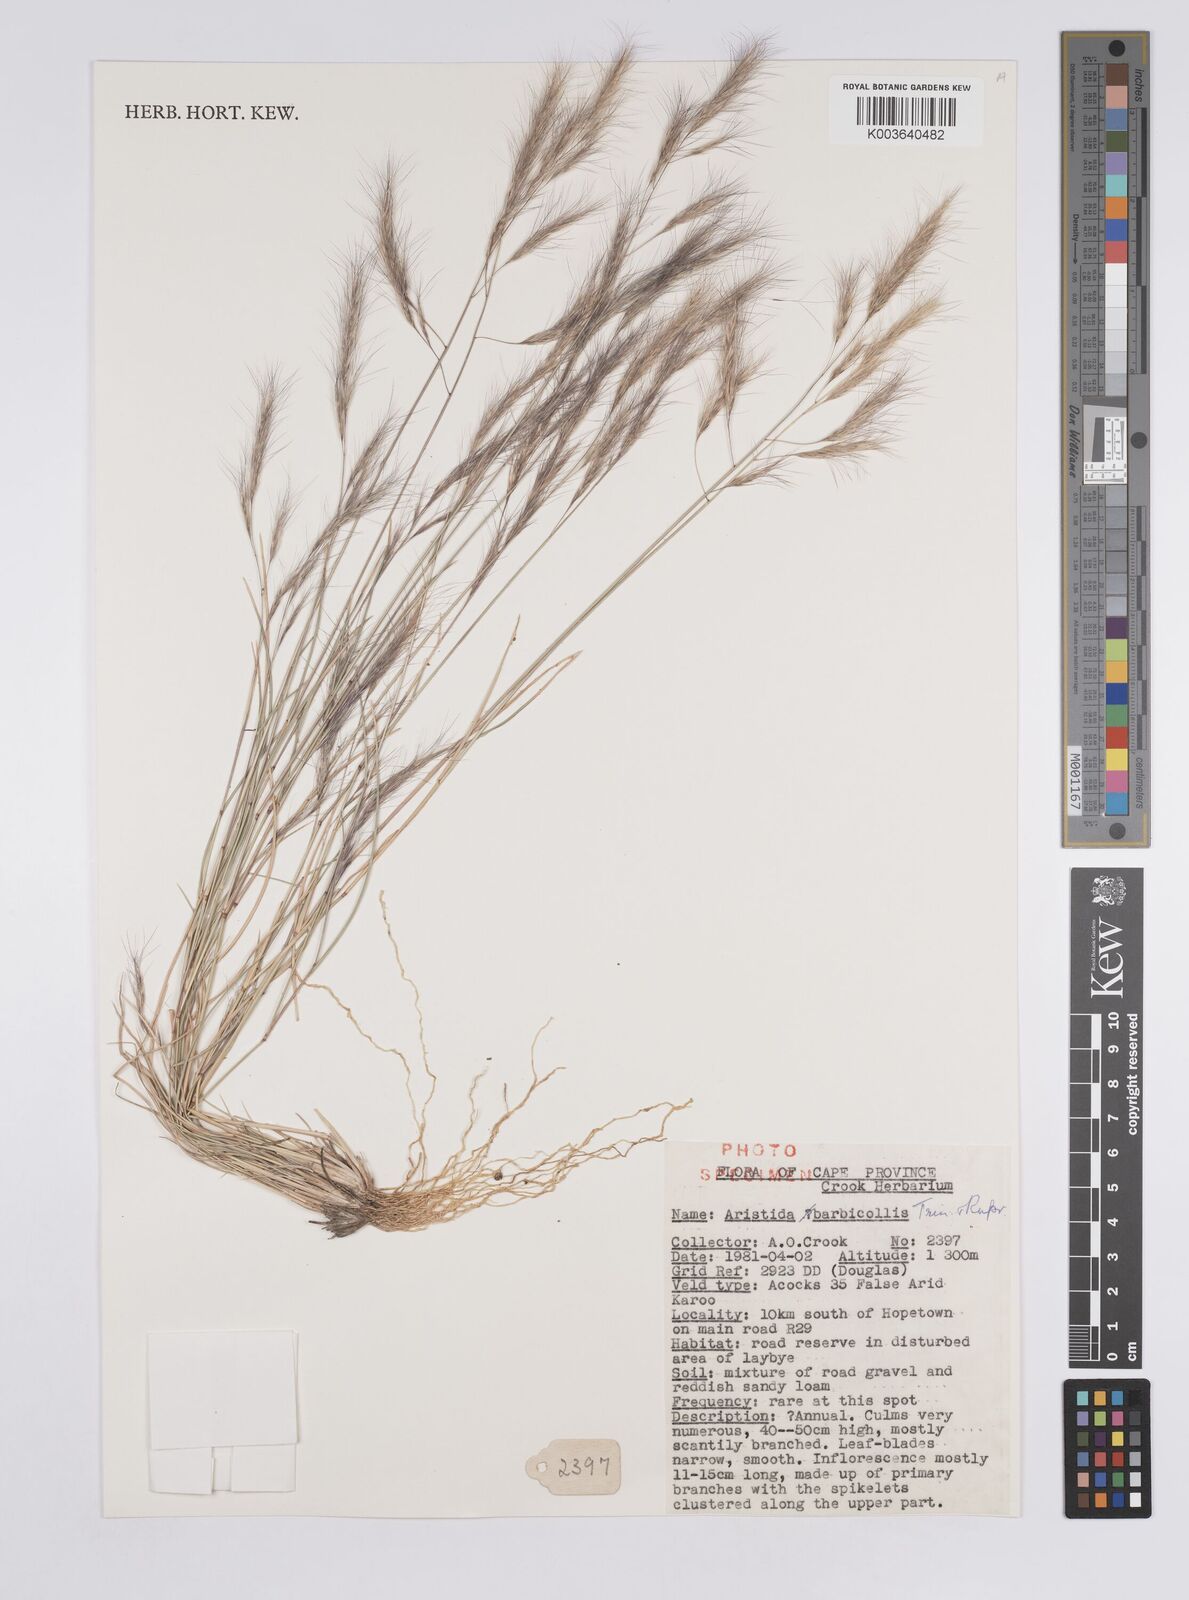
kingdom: Plantae
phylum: Tracheophyta
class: Liliopsida
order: Poales
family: Poaceae
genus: Aristida
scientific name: Aristida barbicollis
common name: Spreading prickle grass
